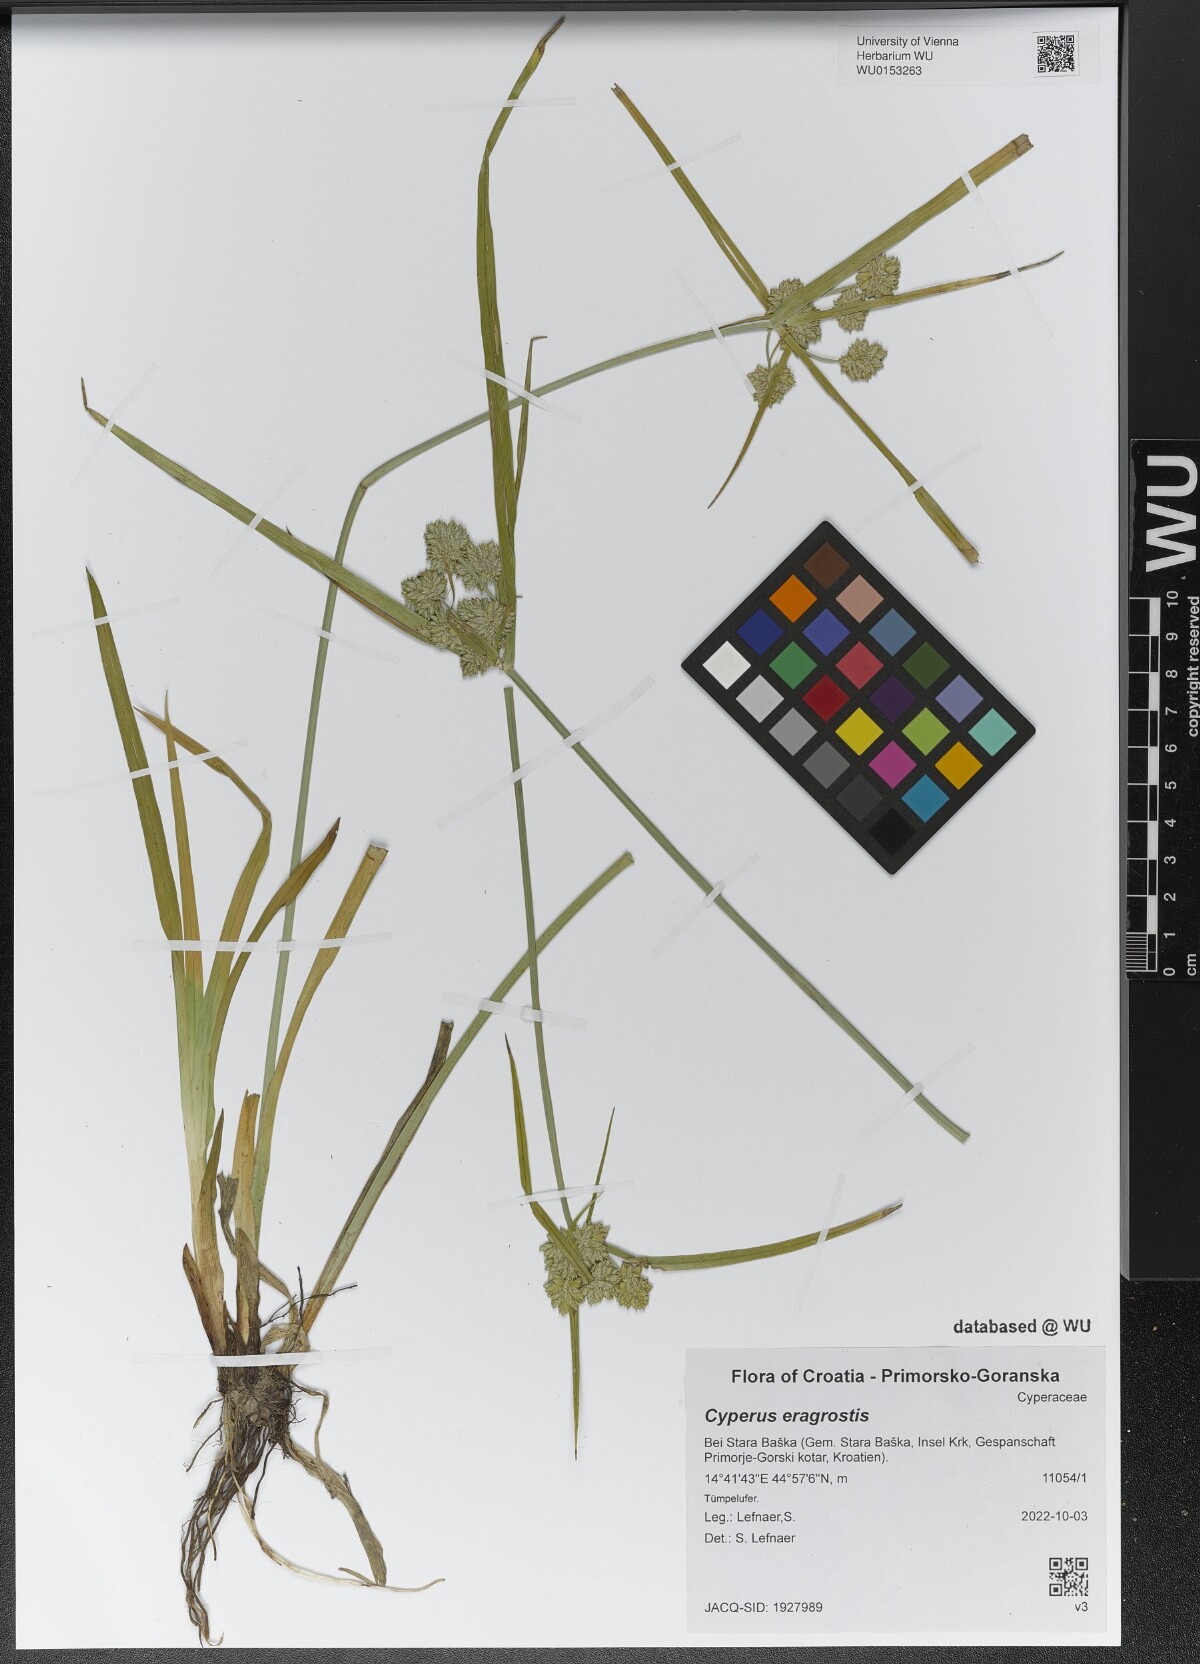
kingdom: Plantae
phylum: Tracheophyta
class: Liliopsida
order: Poales
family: Cyperaceae
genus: Cyperus
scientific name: Cyperus eragrostis
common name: Tall flatsedge
